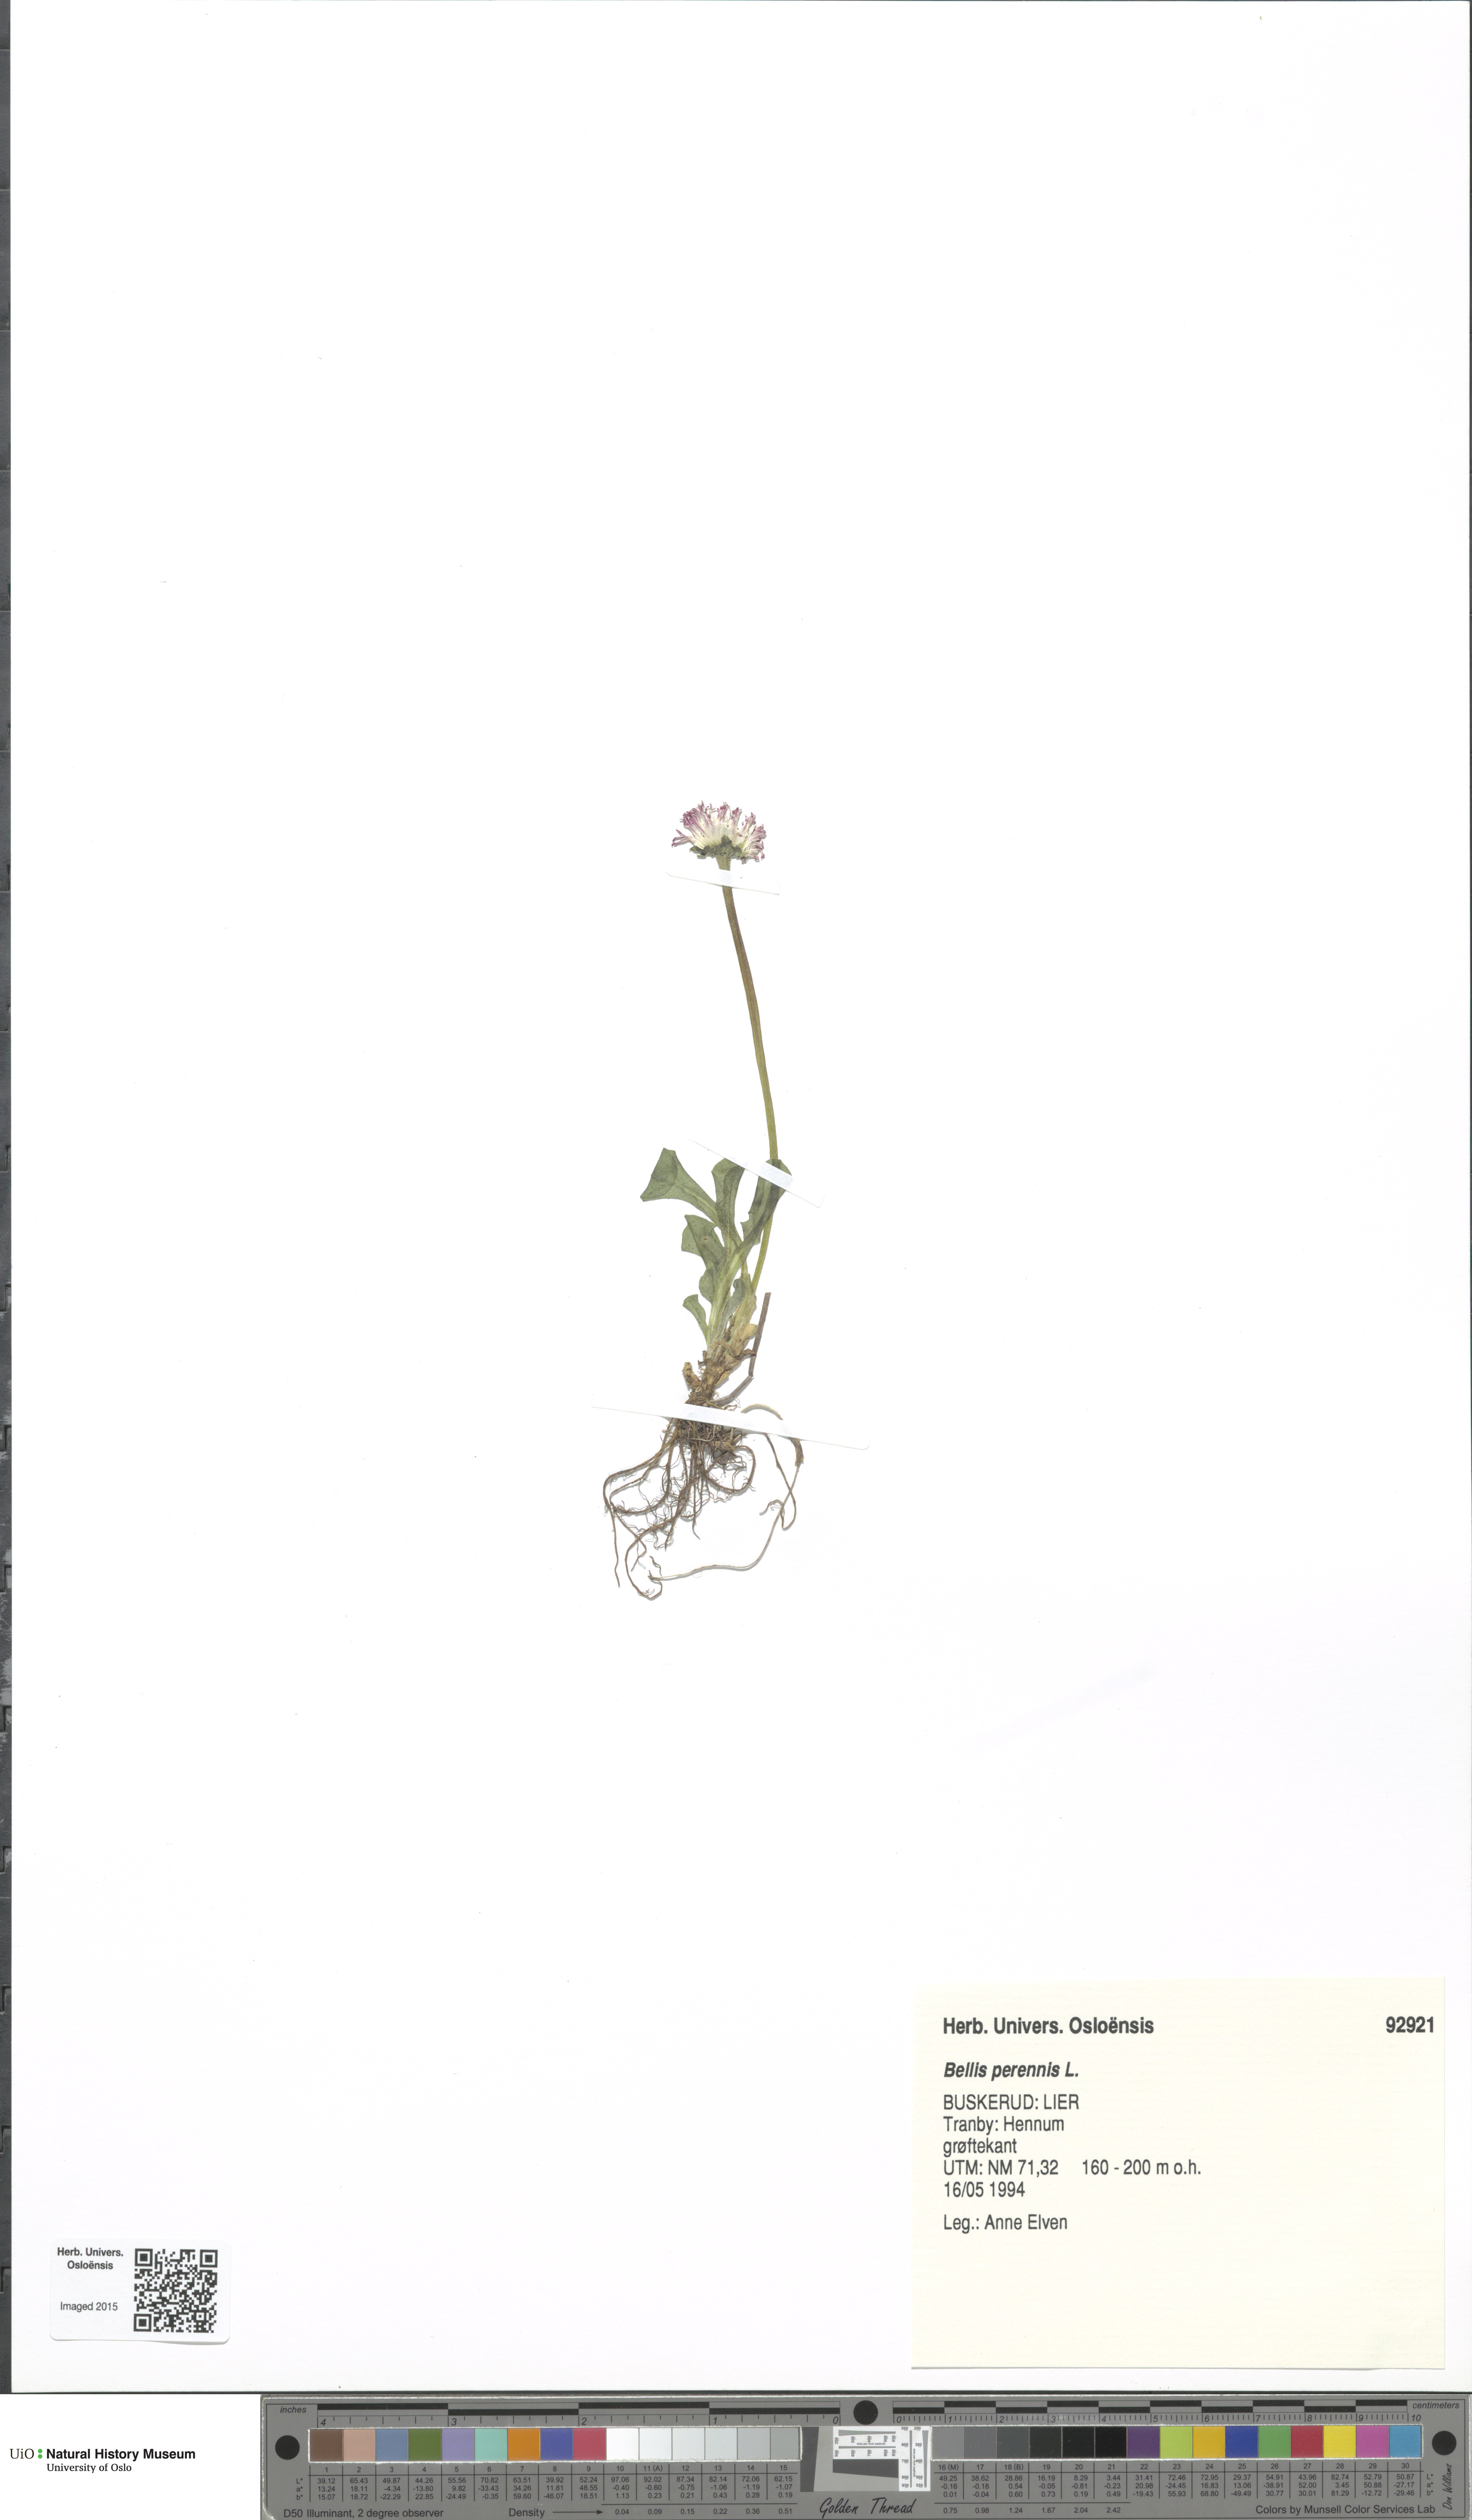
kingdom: Plantae
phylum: Tracheophyta
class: Magnoliopsida
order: Asterales
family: Asteraceae
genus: Bellis
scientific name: Bellis perennis
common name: Lawndaisy
